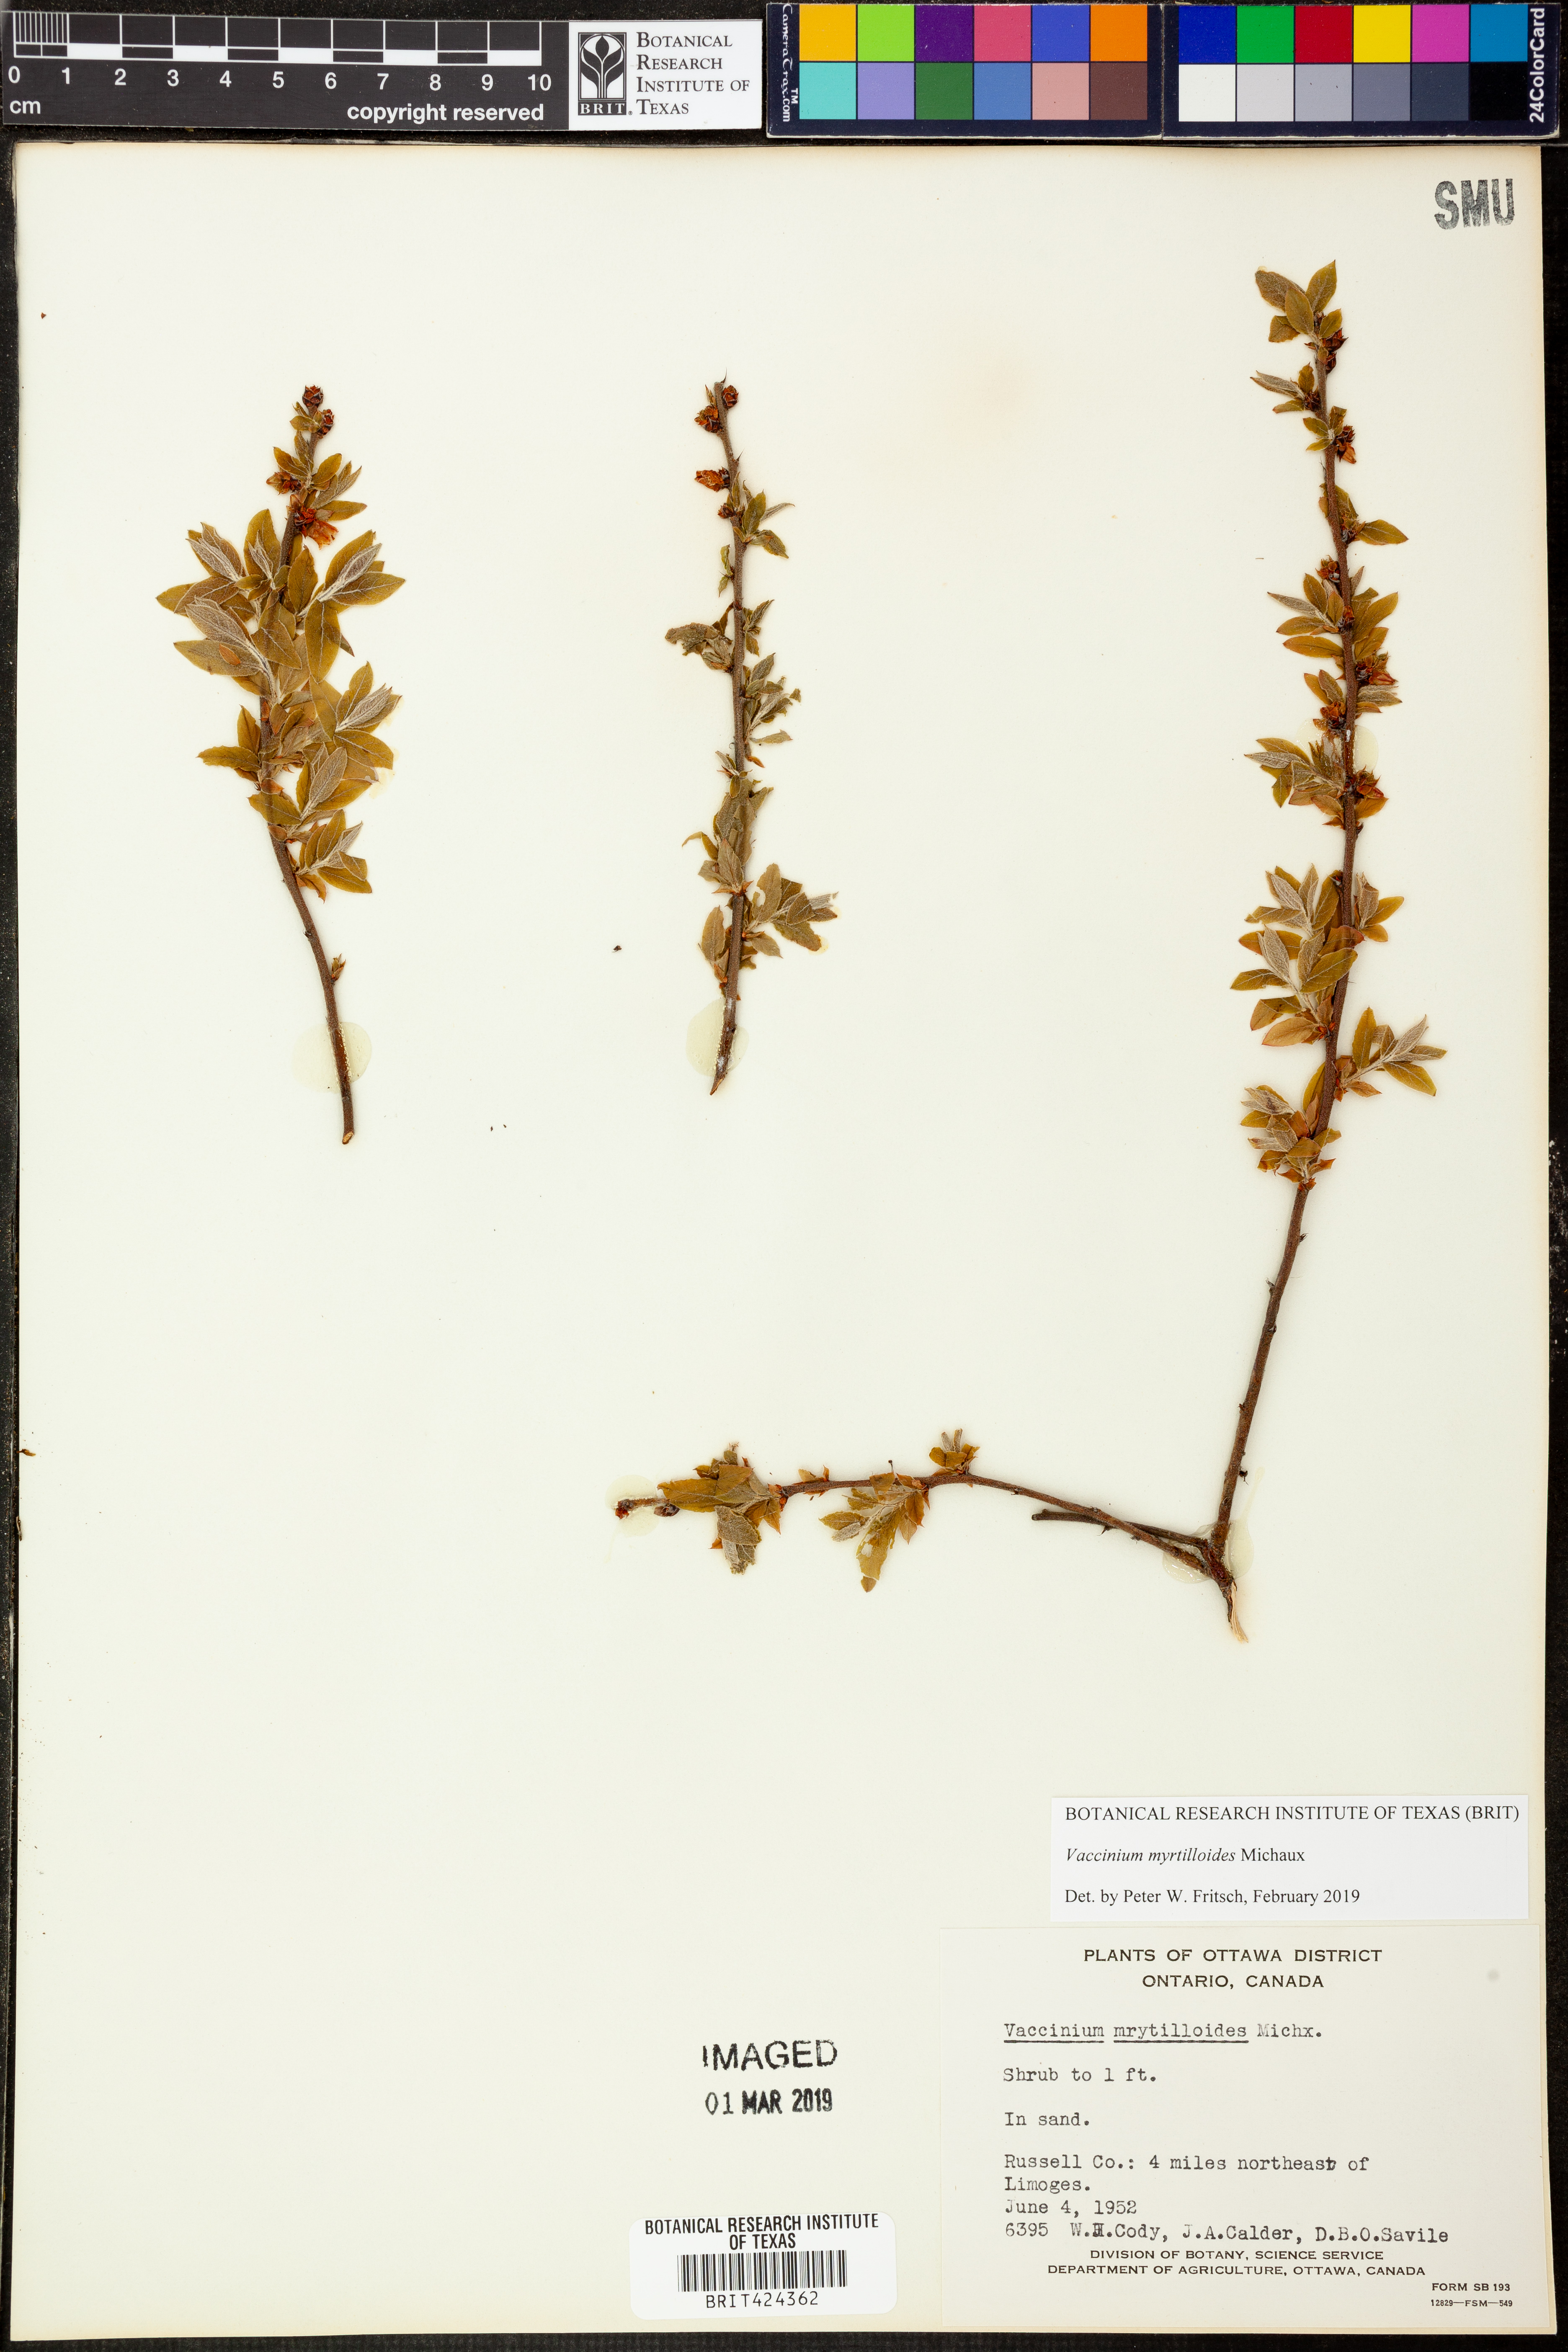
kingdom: Plantae
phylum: Tracheophyta
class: Magnoliopsida
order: Ericales
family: Ericaceae
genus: Vaccinium
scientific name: Vaccinium myrtilloides
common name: Canada blueberry
